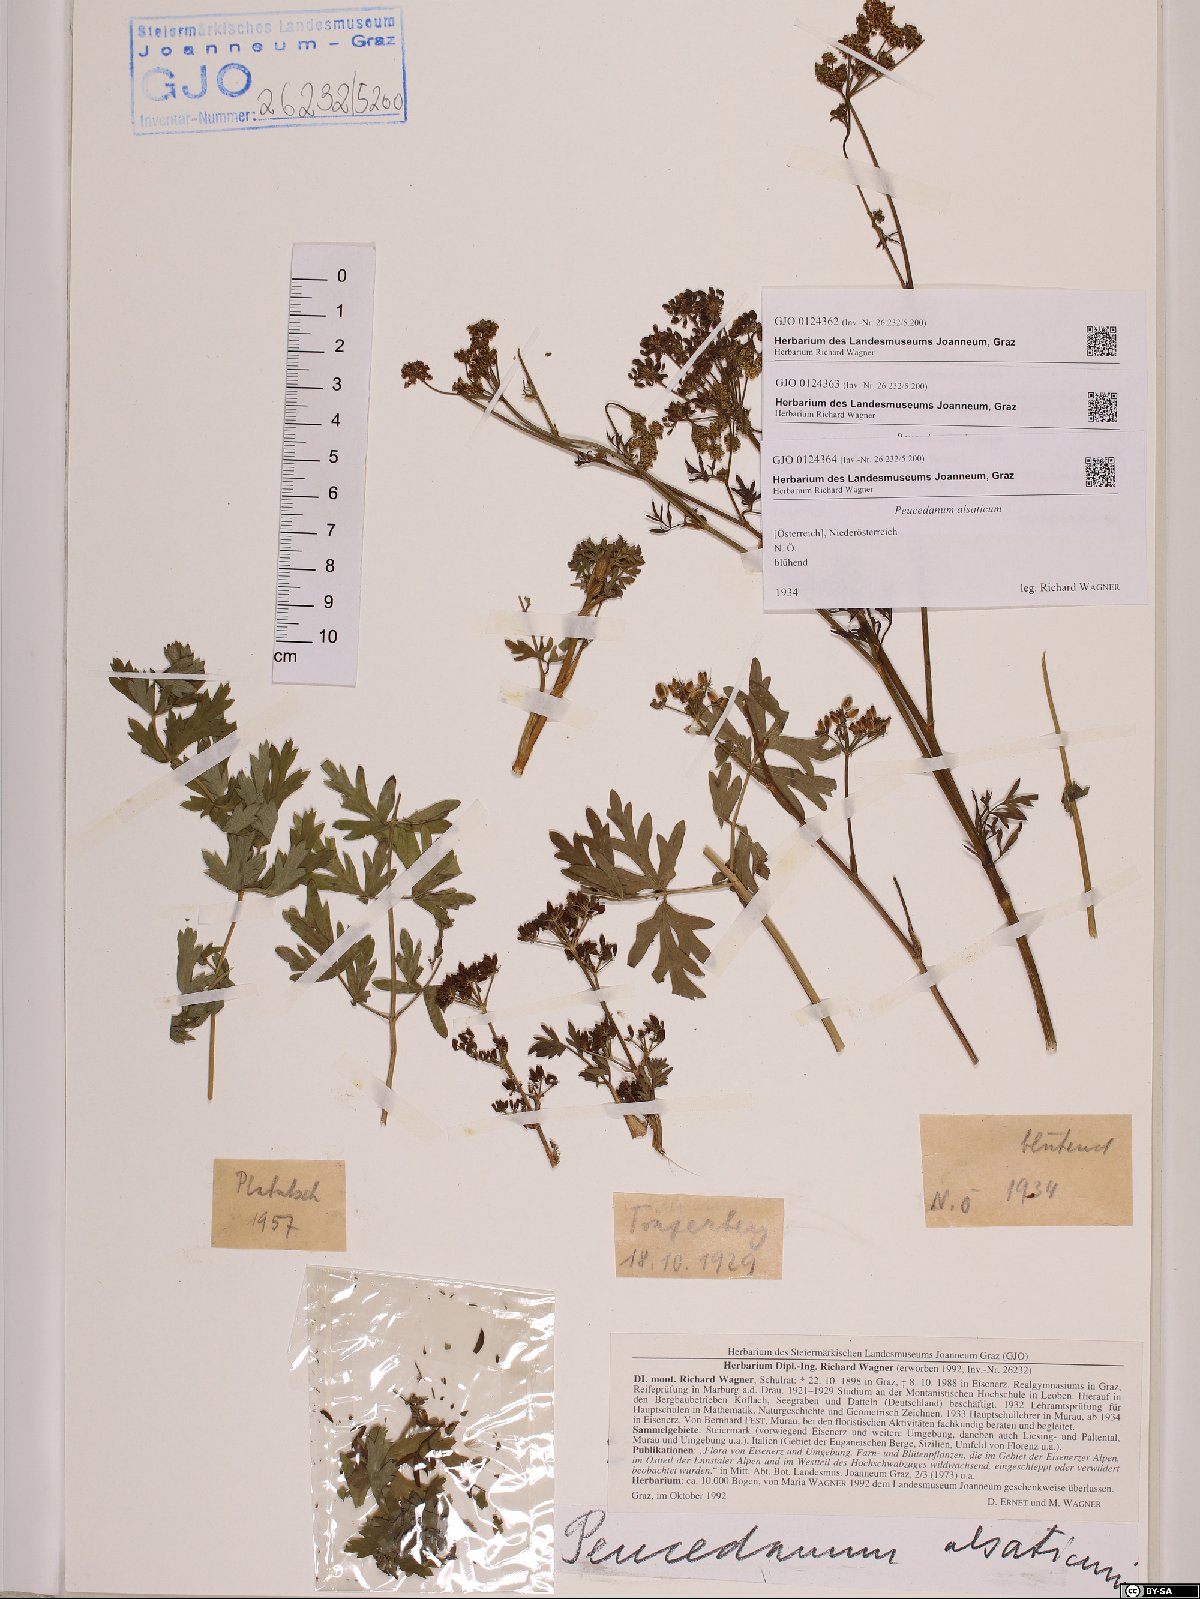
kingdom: Plantae
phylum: Tracheophyta
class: Magnoliopsida
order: Apiales
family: Apiaceae
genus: Xanthoselinum
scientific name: Xanthoselinum alsaticum
